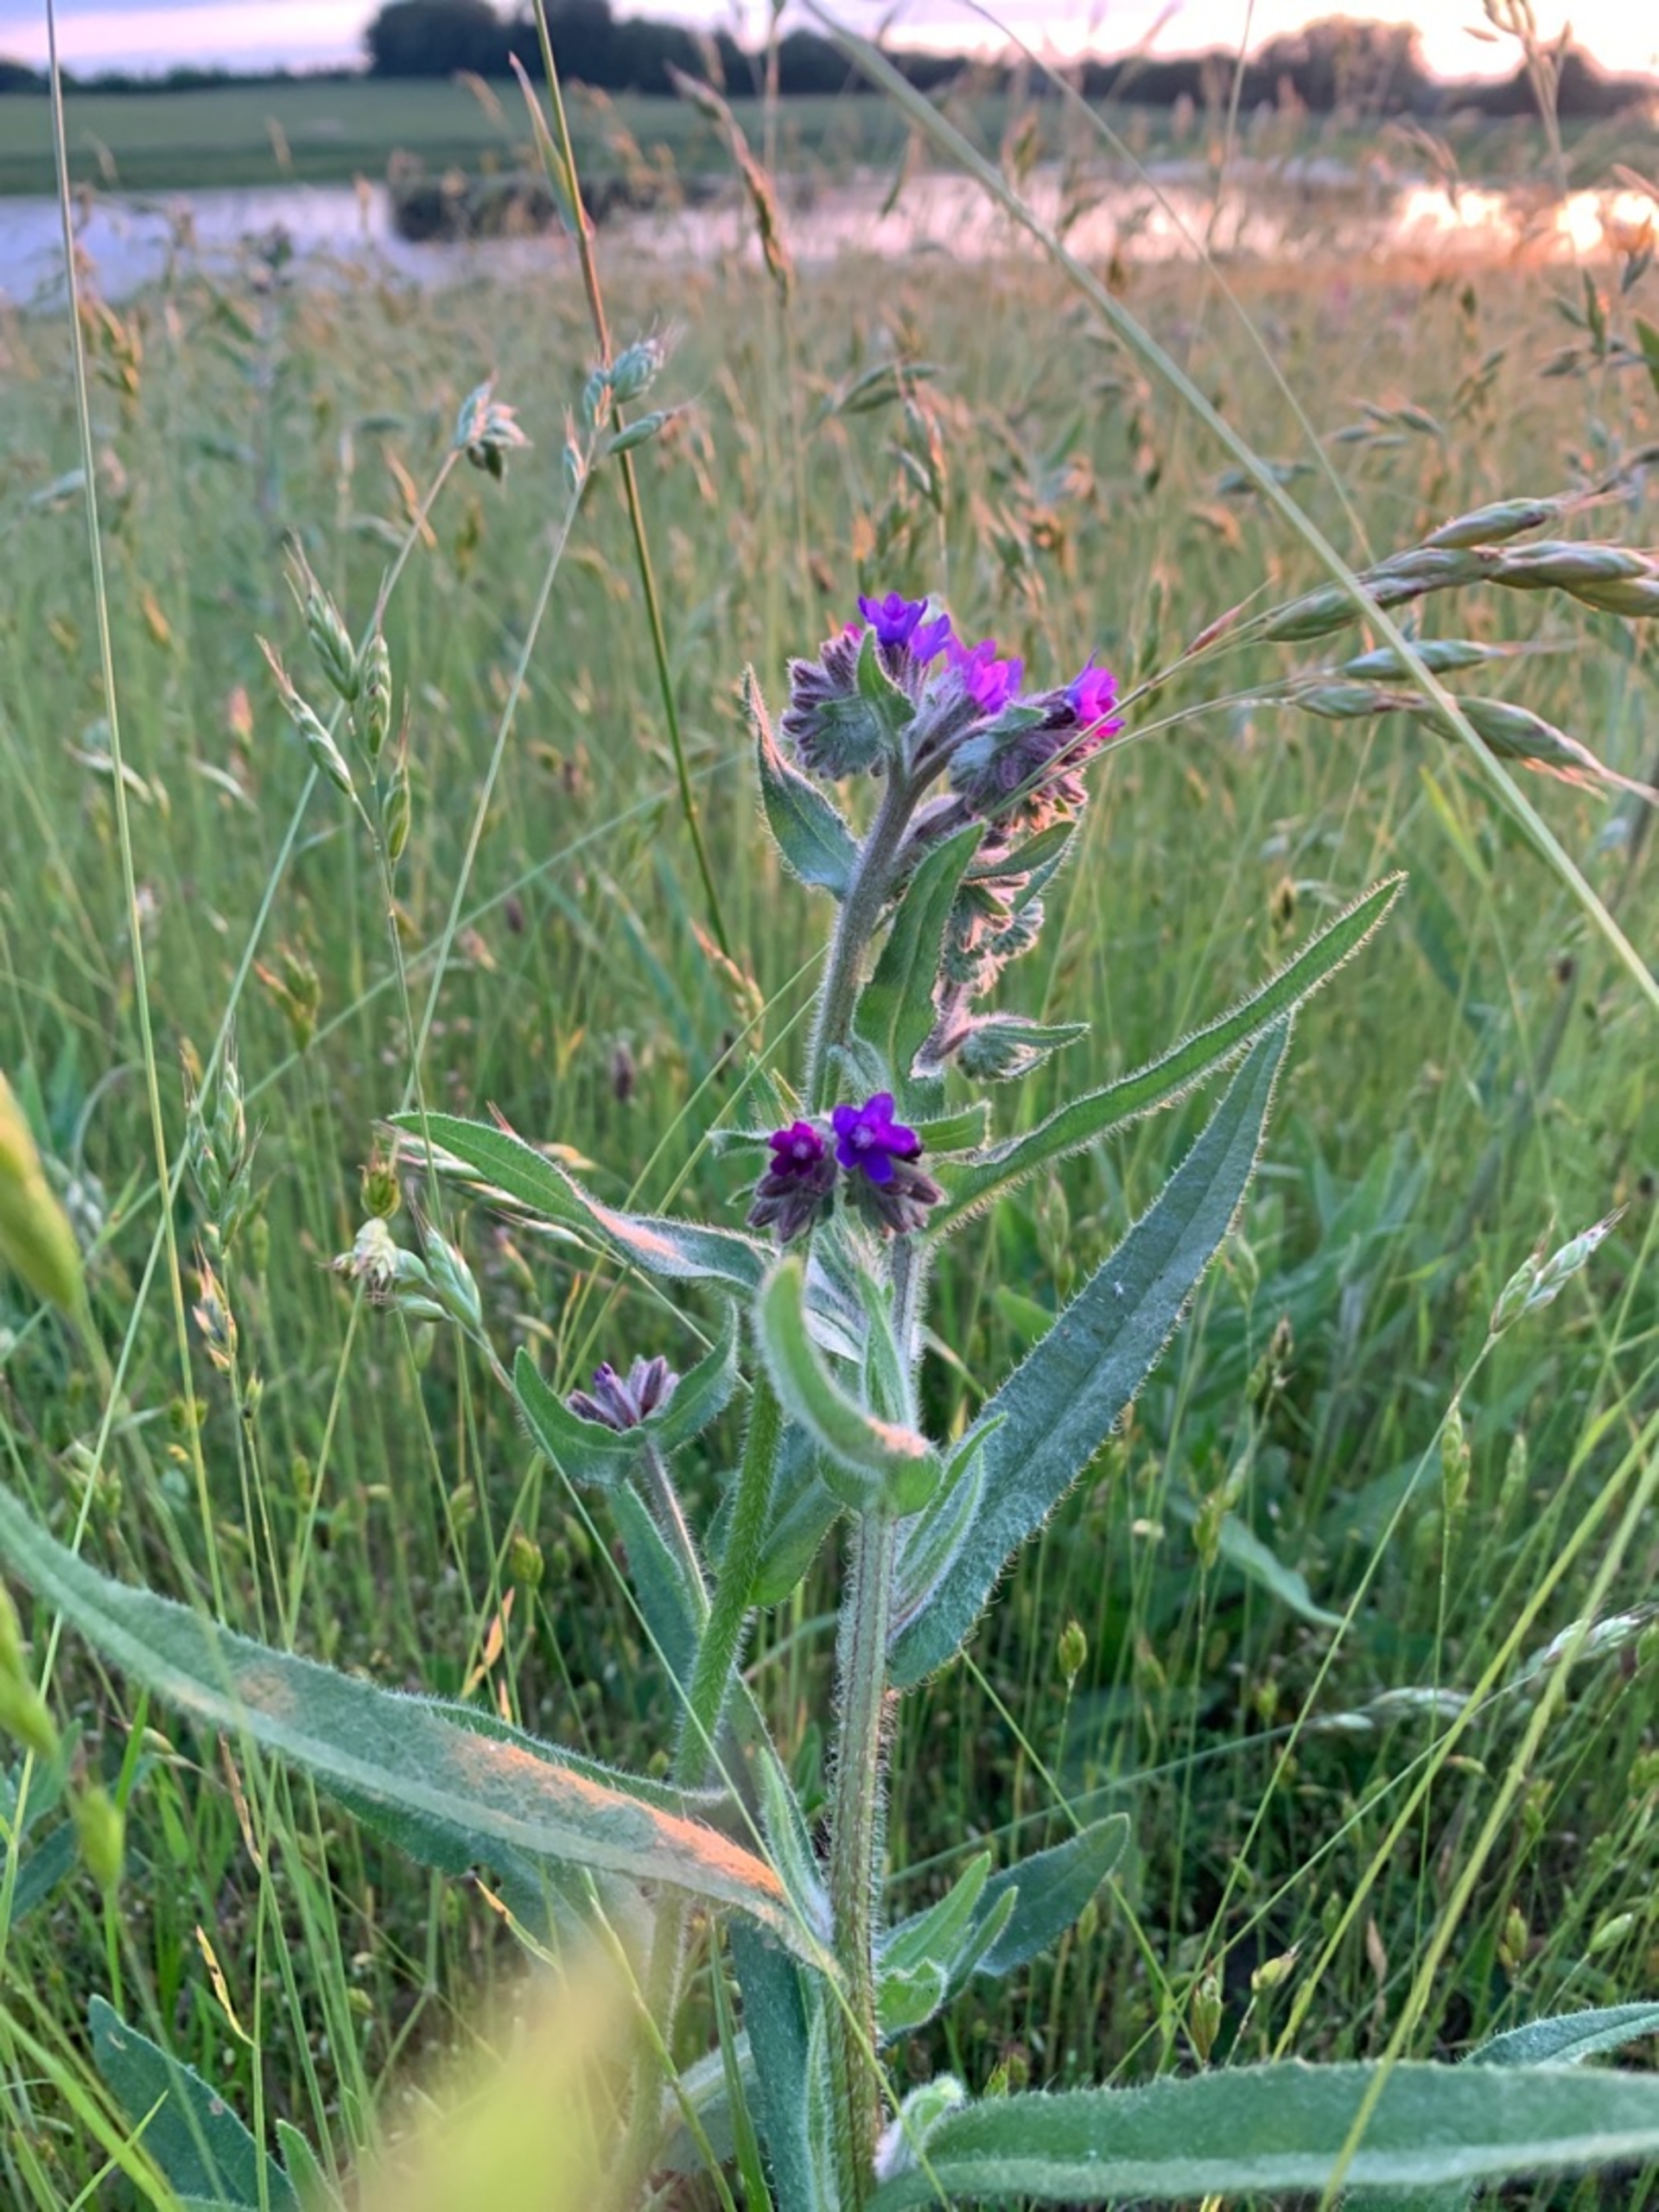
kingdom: Plantae
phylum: Tracheophyta
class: Magnoliopsida
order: Boraginales
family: Boraginaceae
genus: Anchusa
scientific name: Anchusa officinalis
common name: Læge-oksetunge
